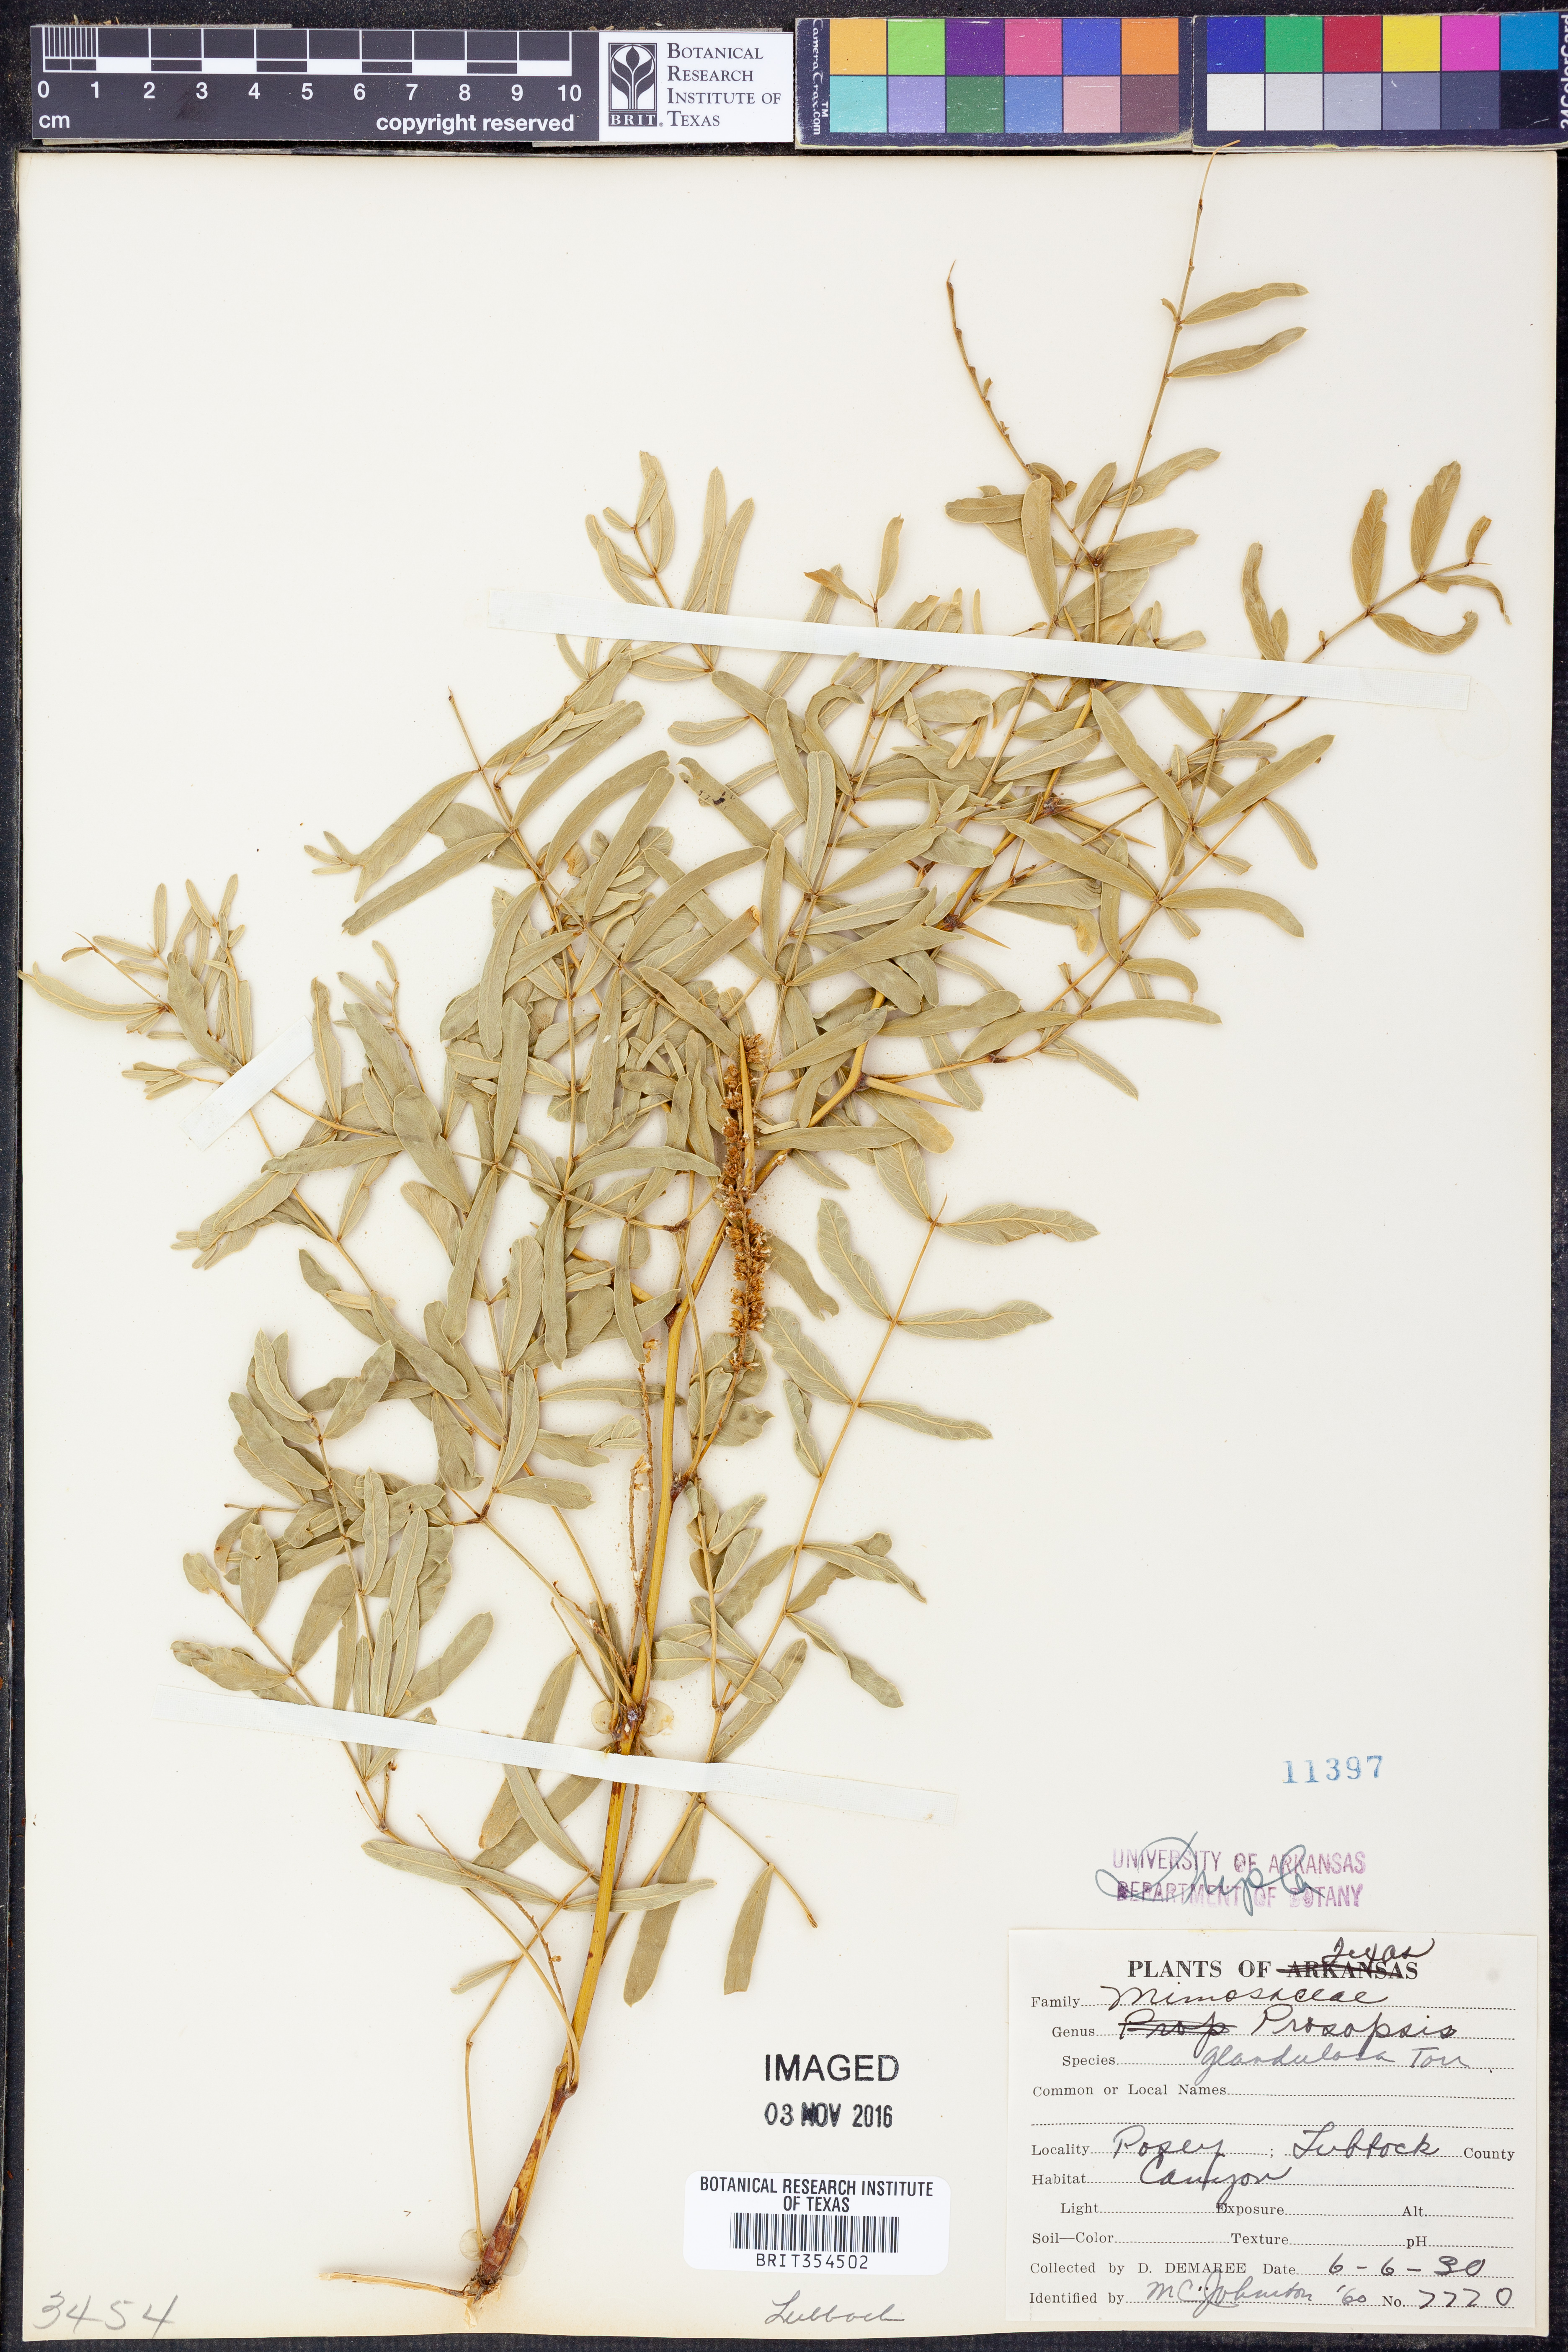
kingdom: Plantae
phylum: Tracheophyta
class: Magnoliopsida
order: Fabales
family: Fabaceae
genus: Prosopis
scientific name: Prosopis glandulosa
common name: Honey mesquite
